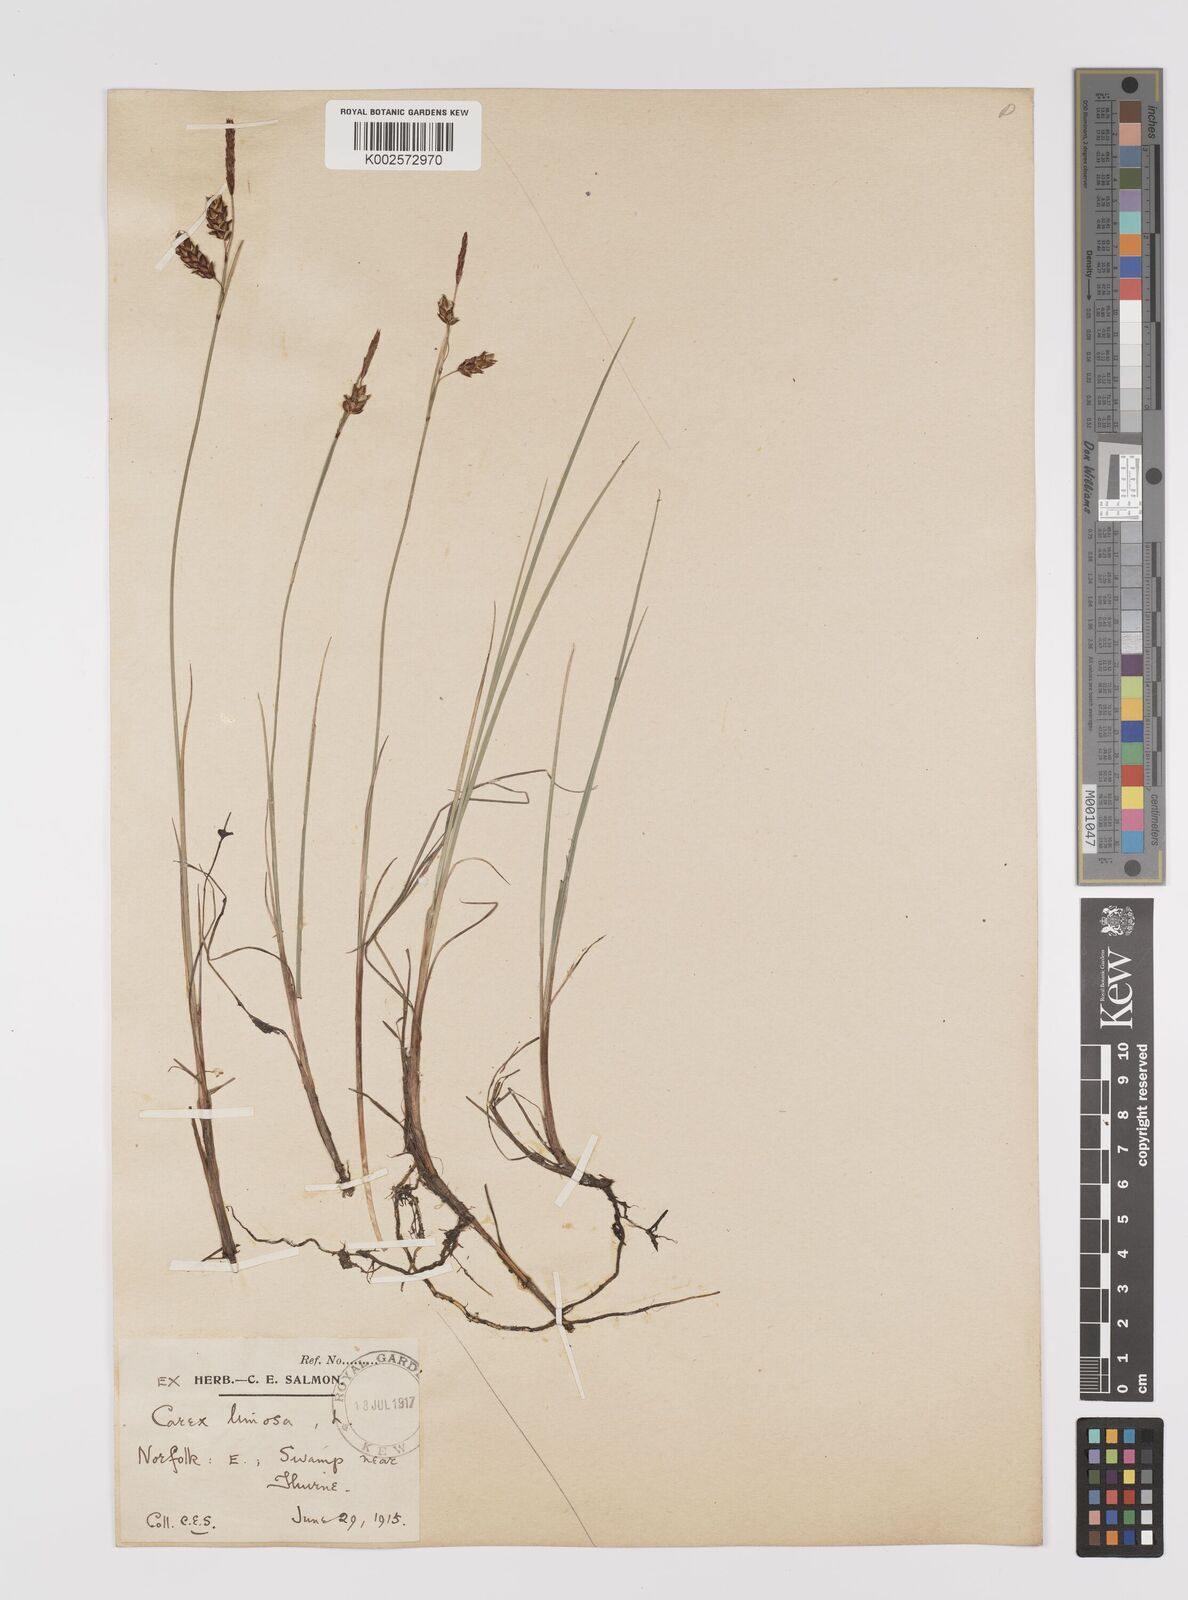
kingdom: Plantae
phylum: Tracheophyta
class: Liliopsida
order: Poales
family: Cyperaceae
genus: Carex
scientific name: Carex limosa
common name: Bog sedge
